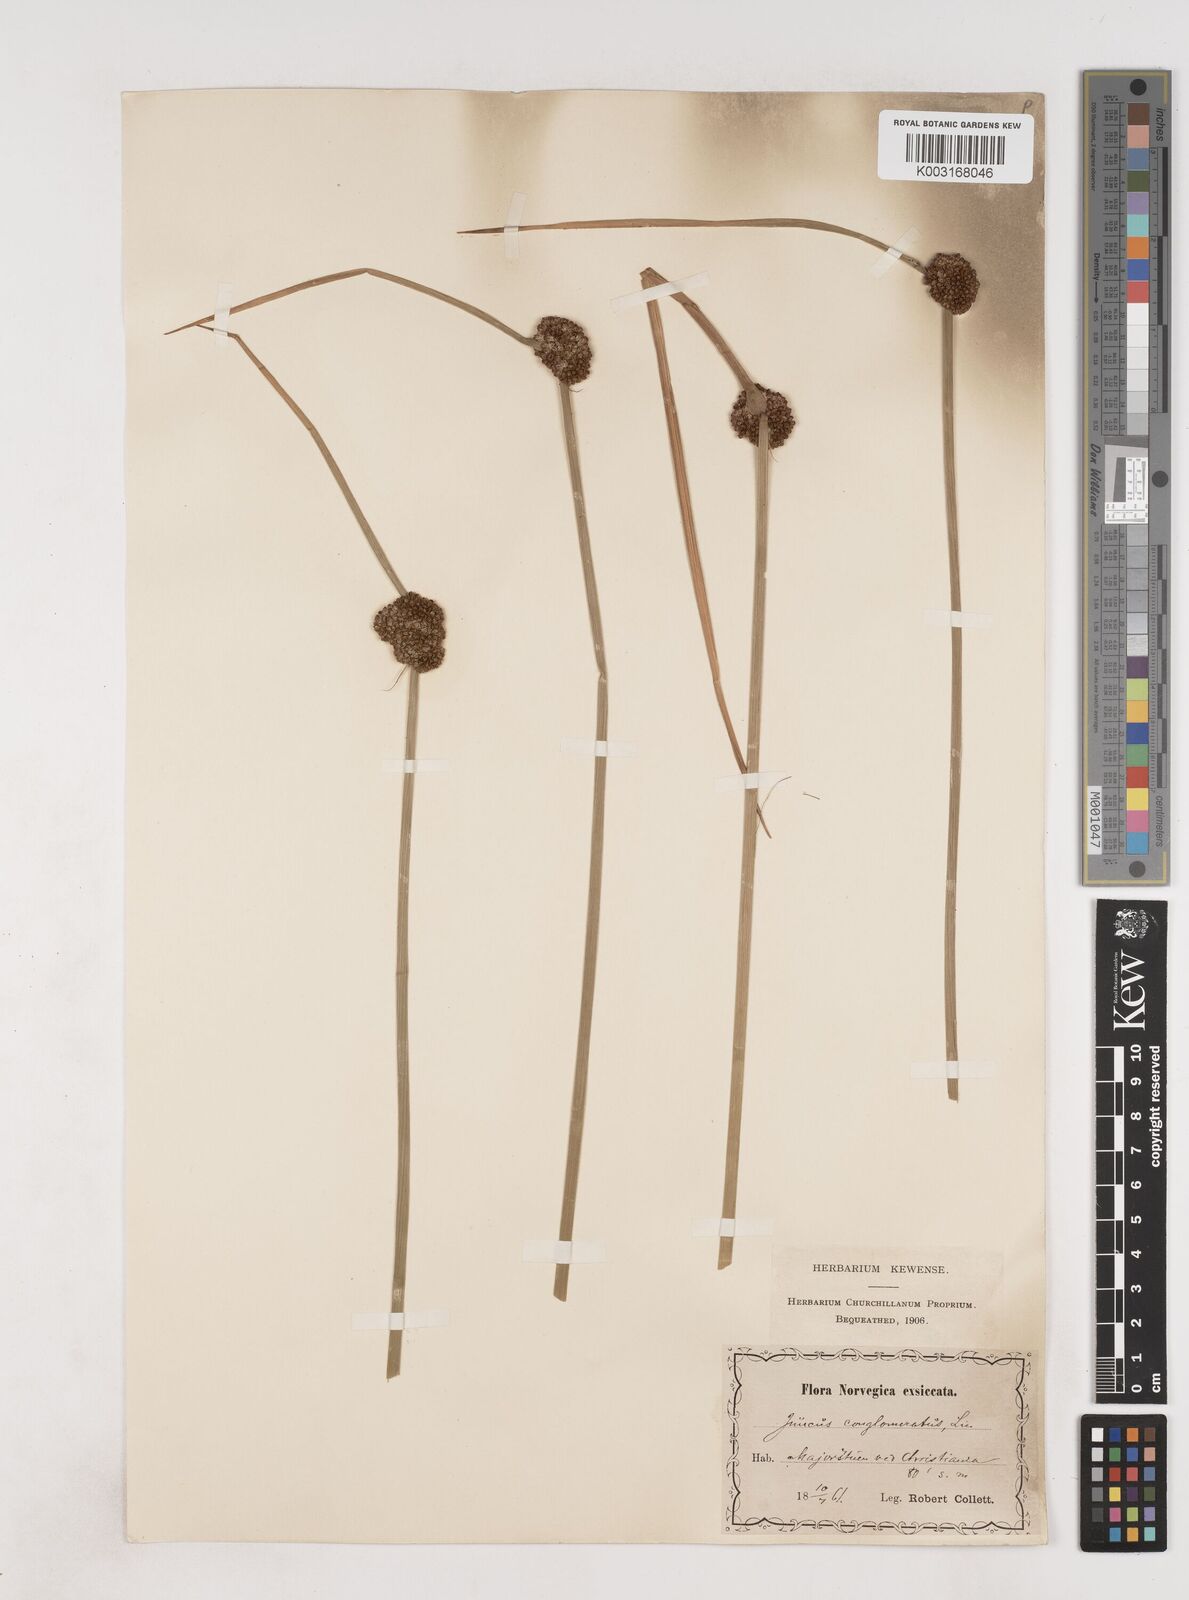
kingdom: Plantae
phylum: Tracheophyta
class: Liliopsida
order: Poales
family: Juncaceae
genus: Juncus
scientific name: Juncus conglomeratus
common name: Compact rush
